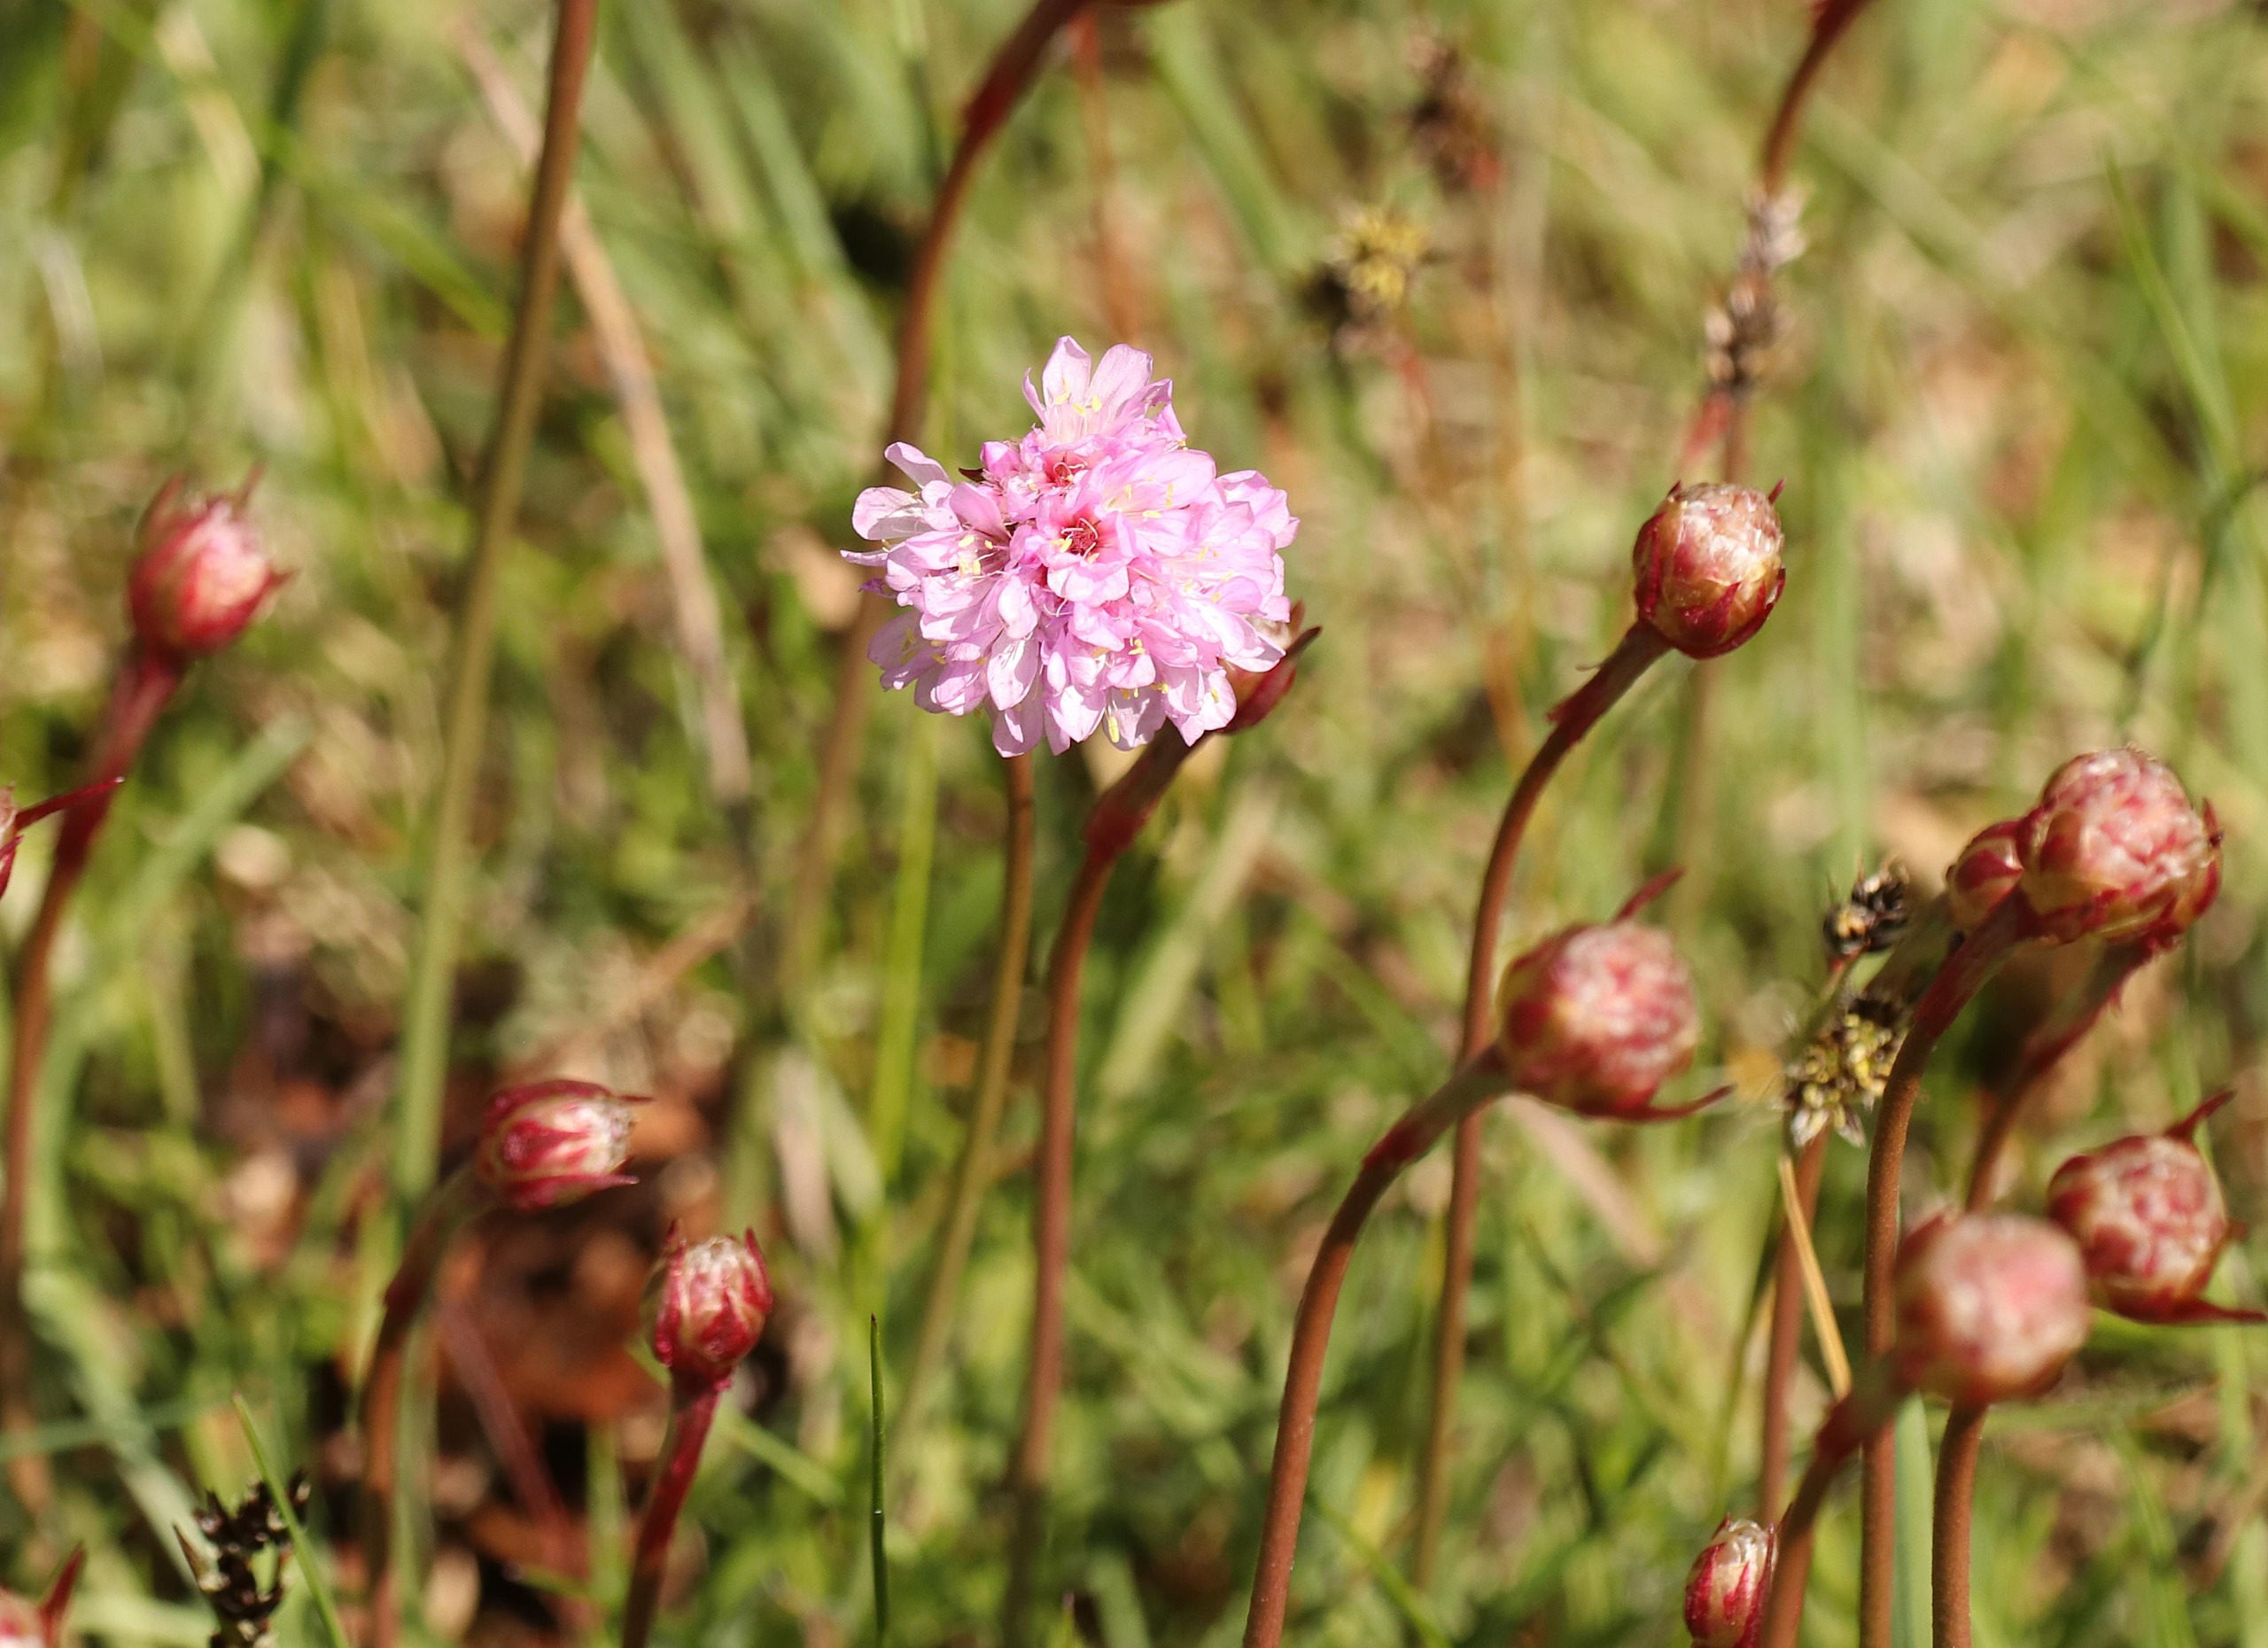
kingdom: Plantae
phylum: Tracheophyta
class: Magnoliopsida
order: Caryophyllales
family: Plumbaginaceae
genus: Armeria
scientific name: Armeria maritima
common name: Engelskgræs
